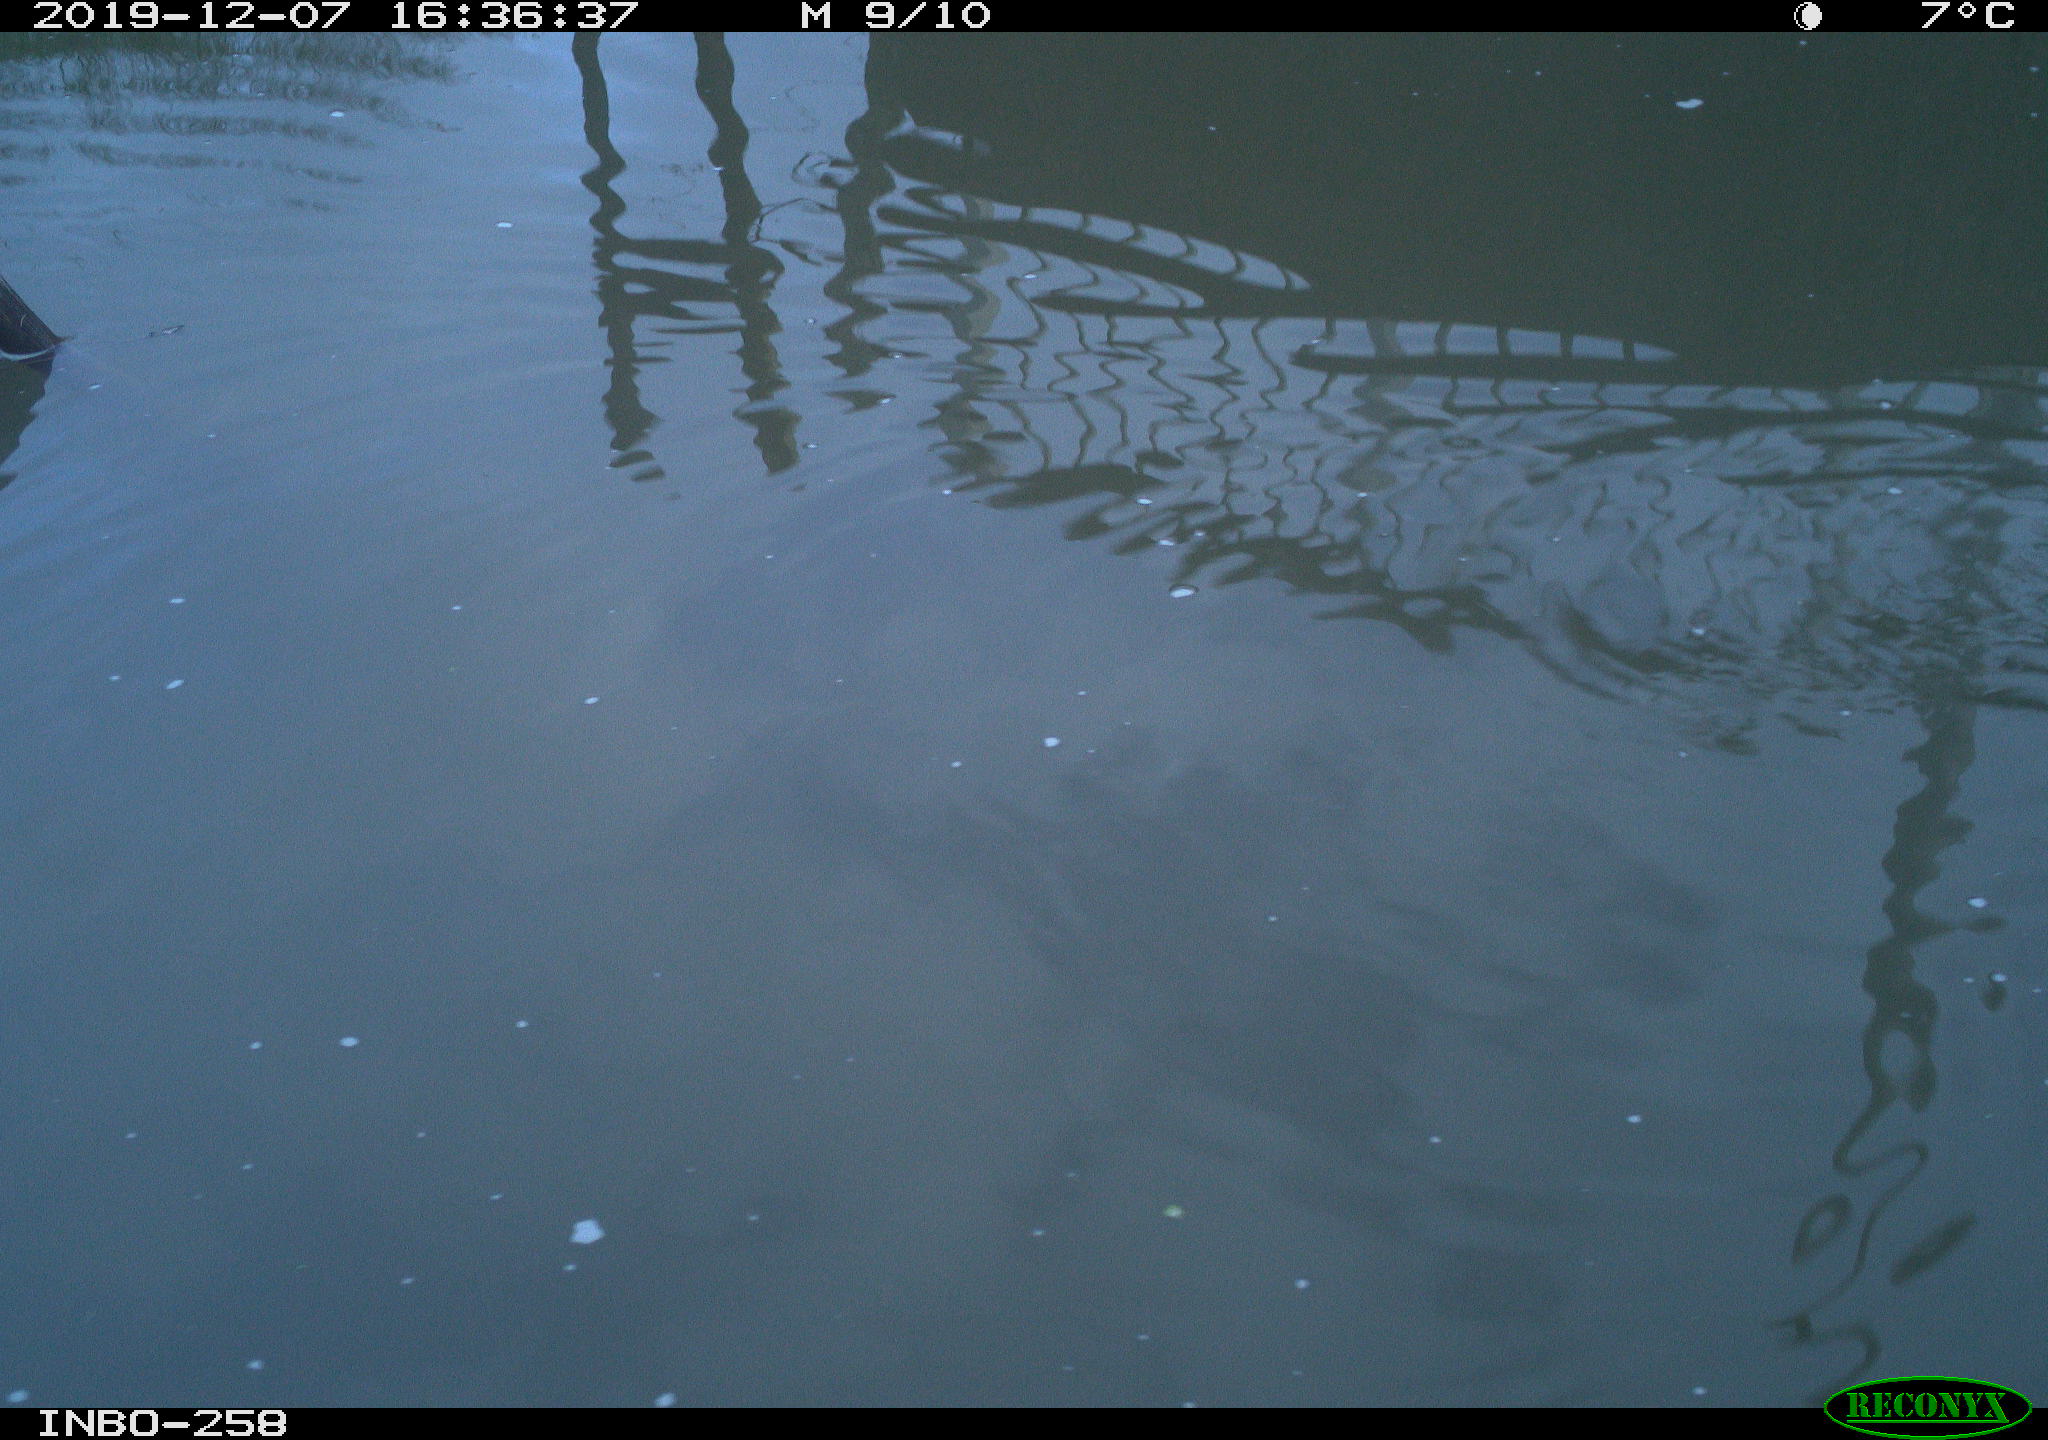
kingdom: Animalia
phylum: Chordata
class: Aves
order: Gruiformes
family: Rallidae
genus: Gallinula
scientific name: Gallinula chloropus
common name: Common moorhen
